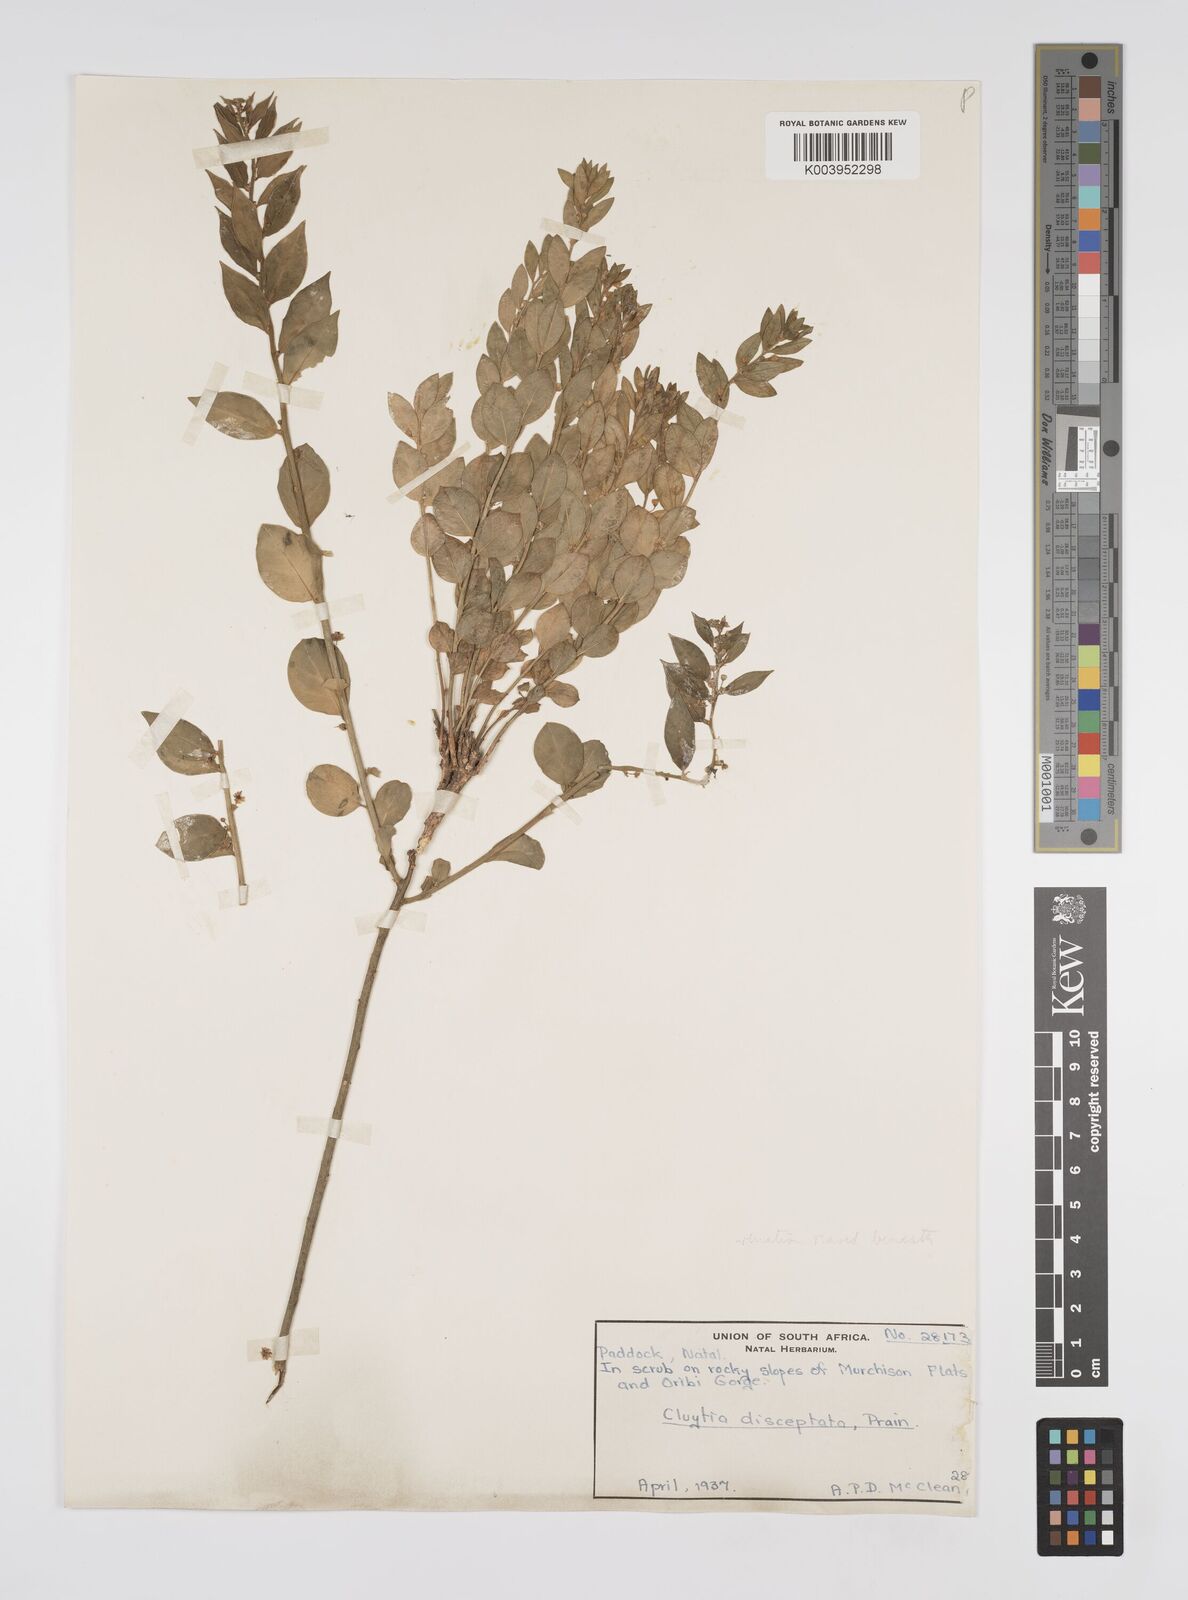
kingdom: Plantae
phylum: Tracheophyta
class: Magnoliopsida
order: Malpighiales
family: Peraceae
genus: Clutia
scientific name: Clutia disceptata
